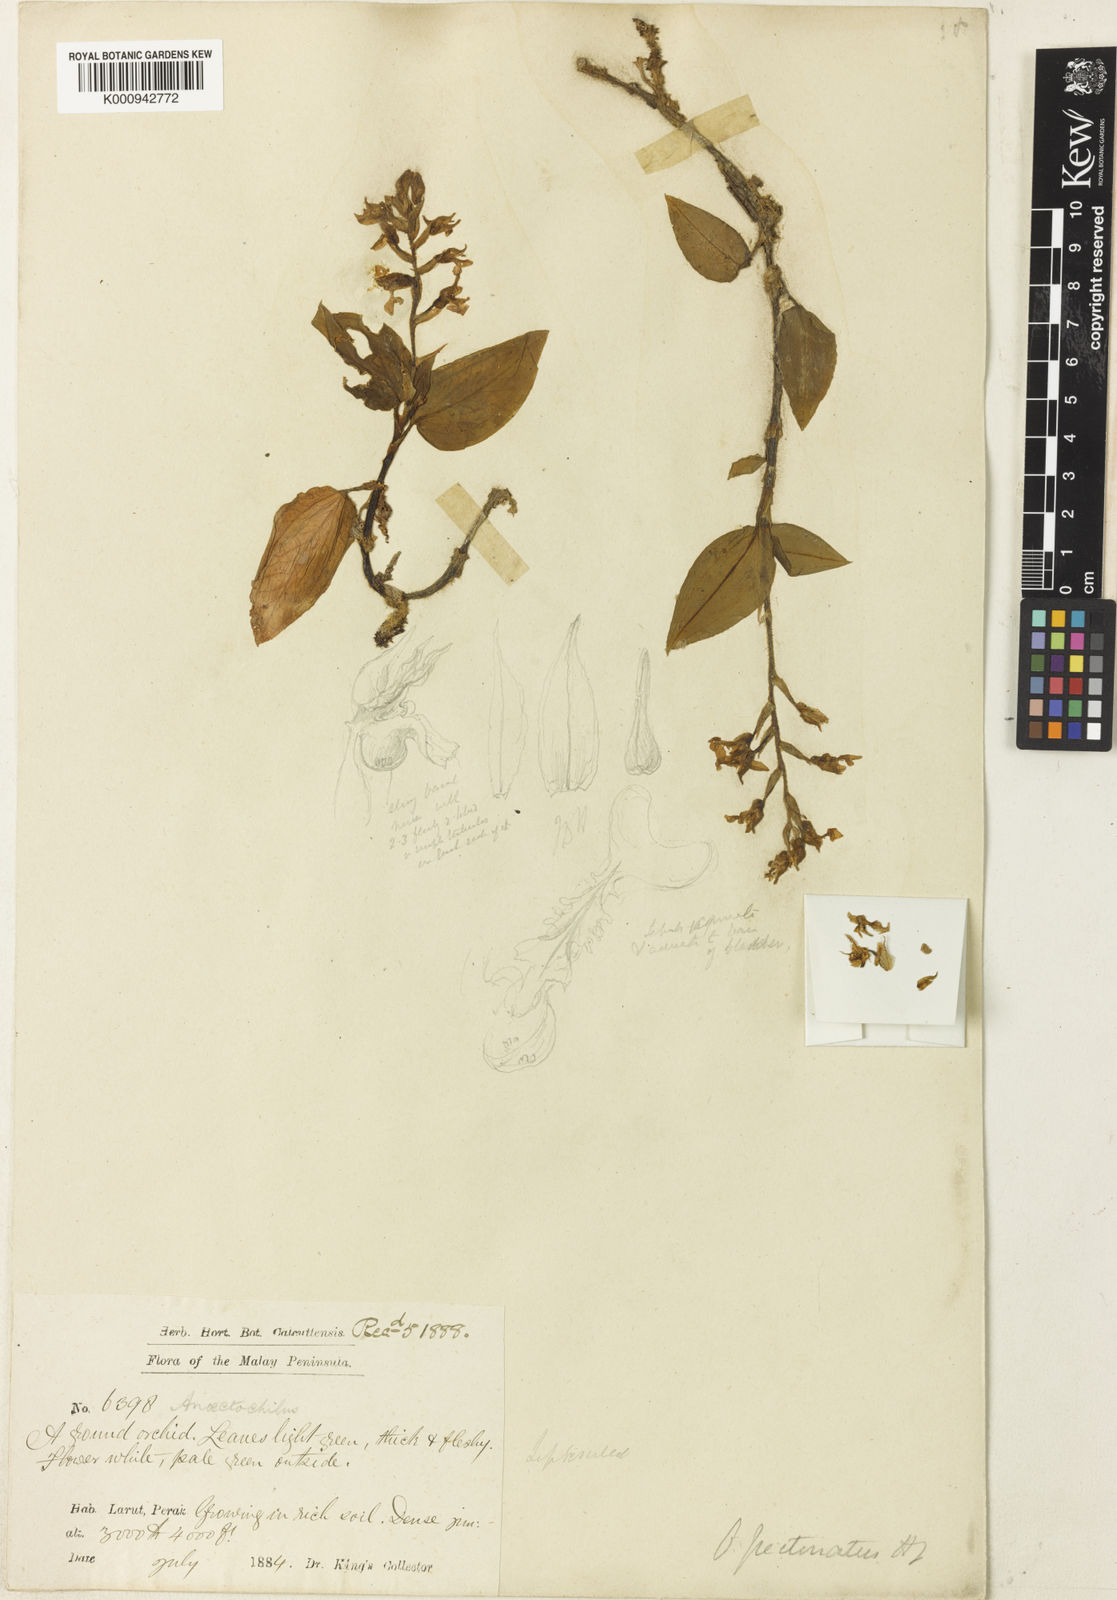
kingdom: Plantae
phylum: Tracheophyta
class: Liliopsida
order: Asparagales
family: Orchidaceae
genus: Anoectochilus
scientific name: Anoectochilus pectinatus
